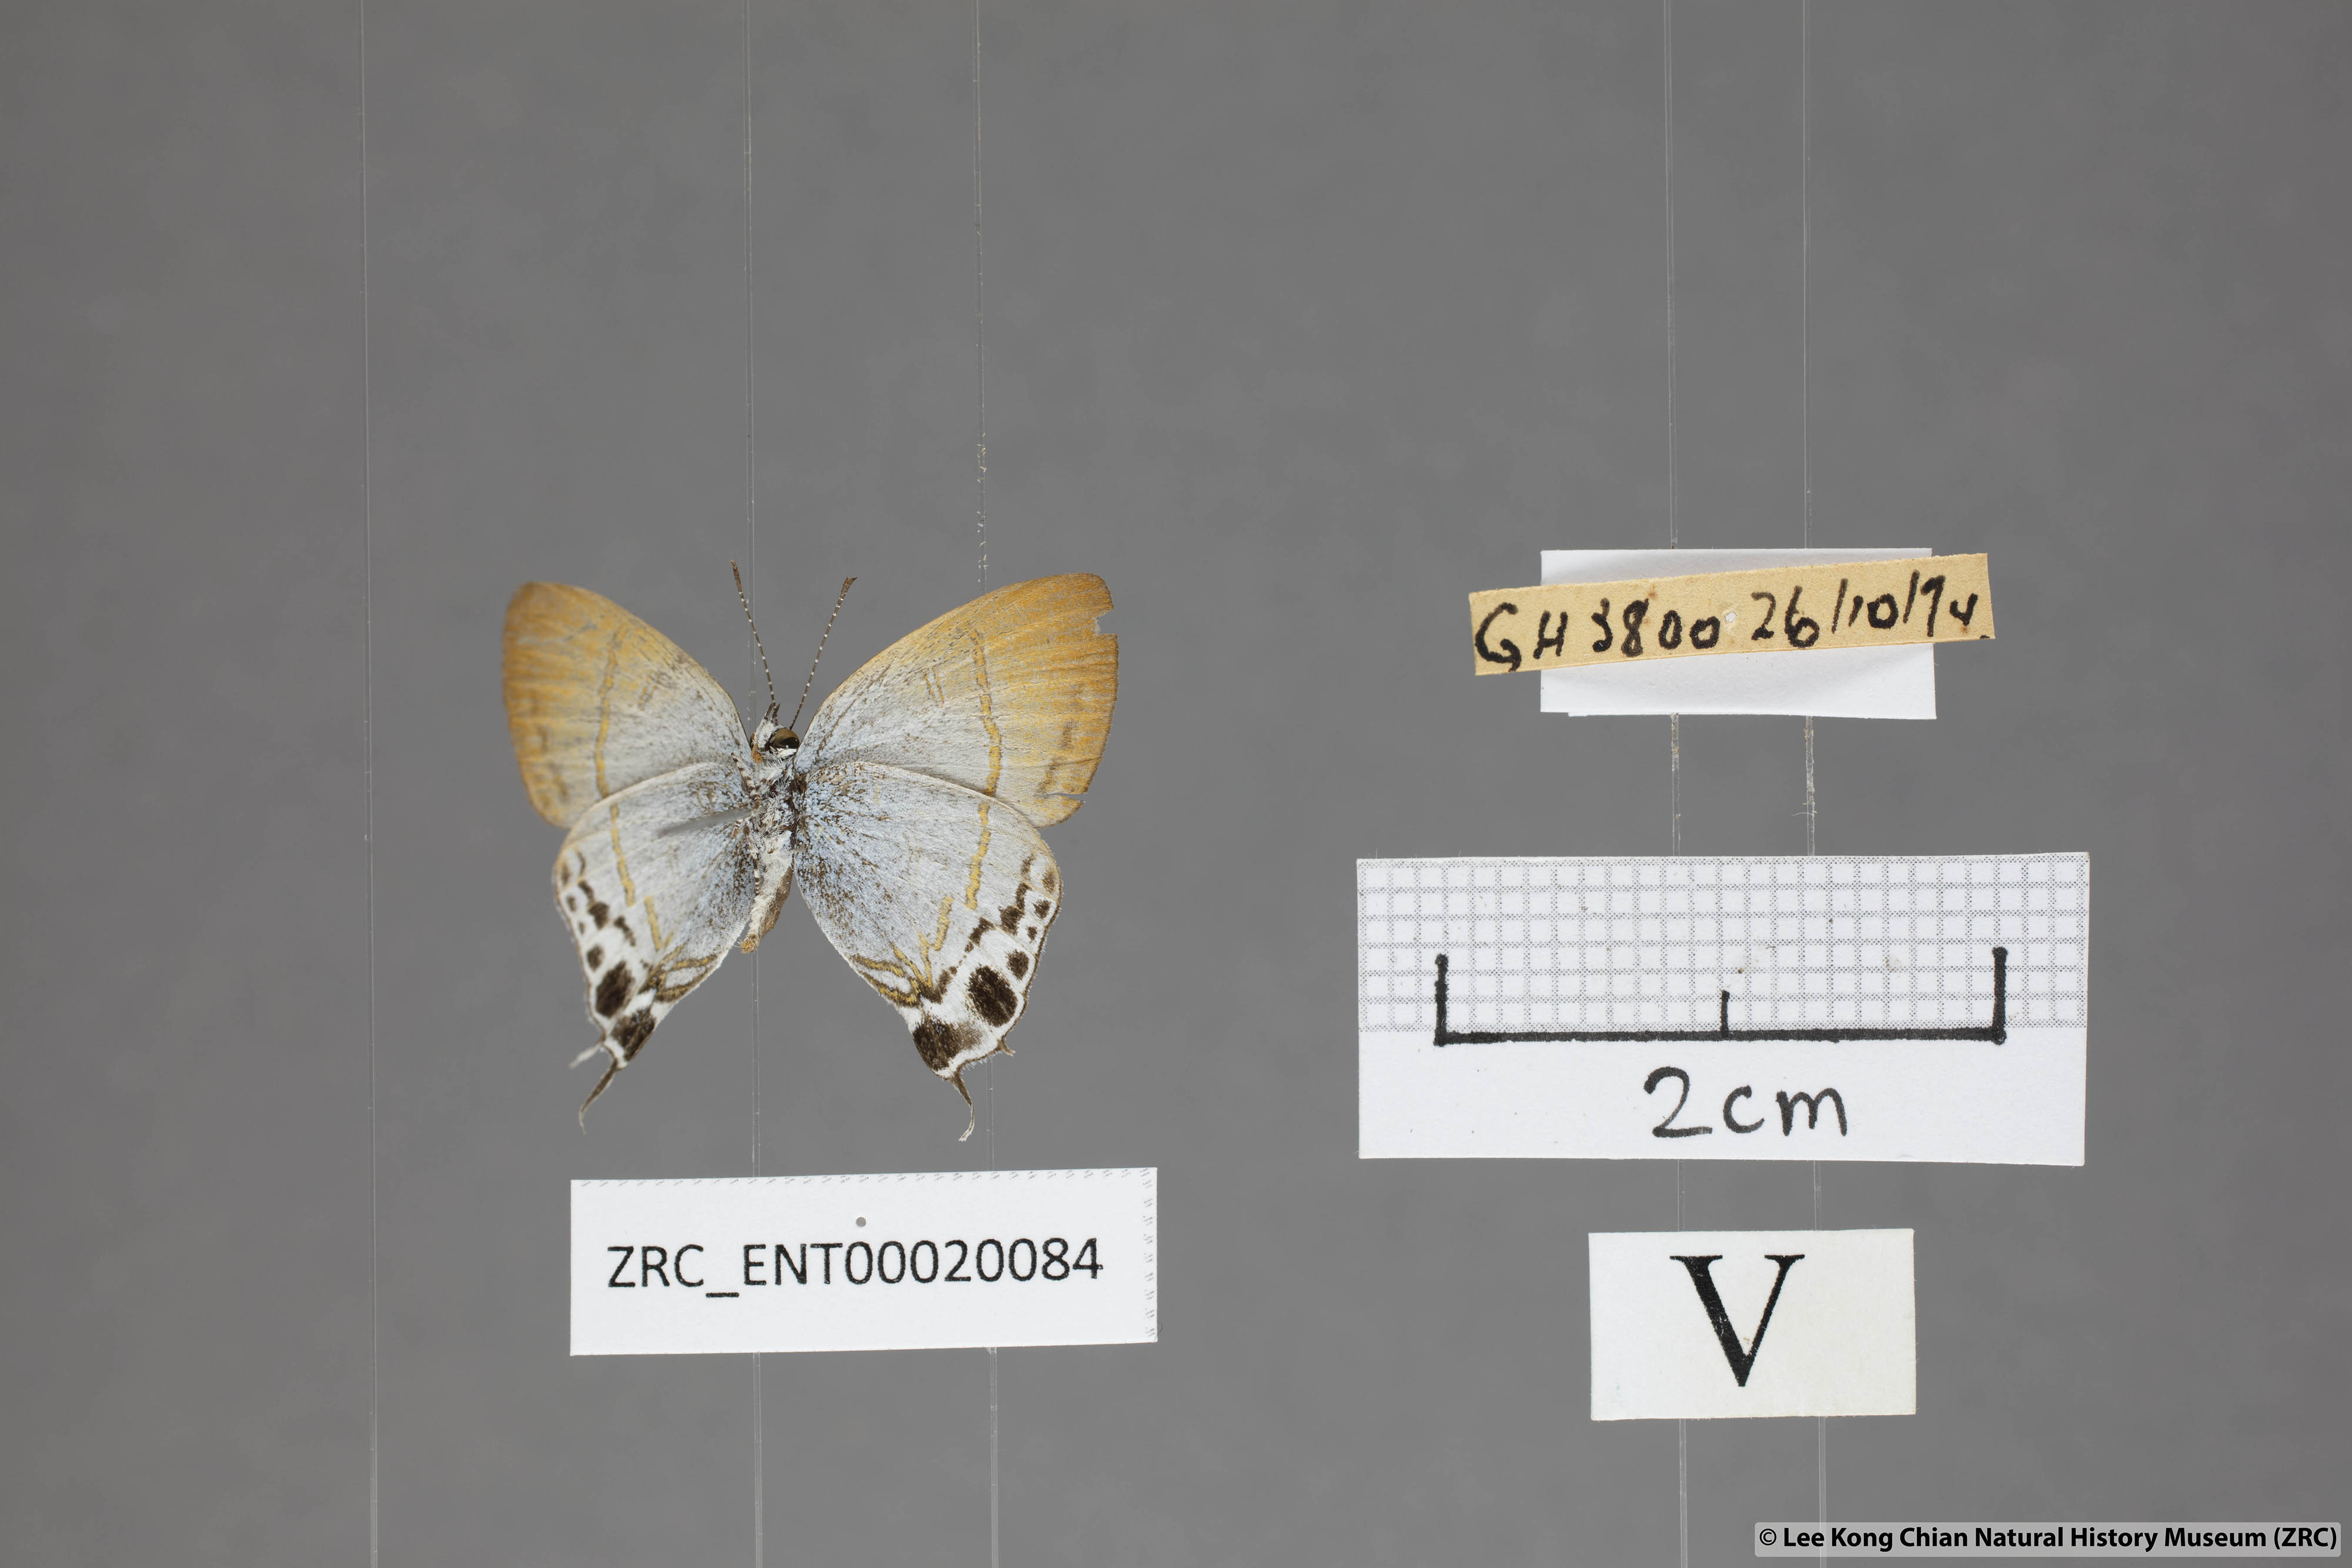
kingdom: Animalia
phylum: Arthropoda
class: Insecta
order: Lepidoptera
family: Lycaenidae
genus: Hypolycaena
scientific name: Hypolycaena amabilis
